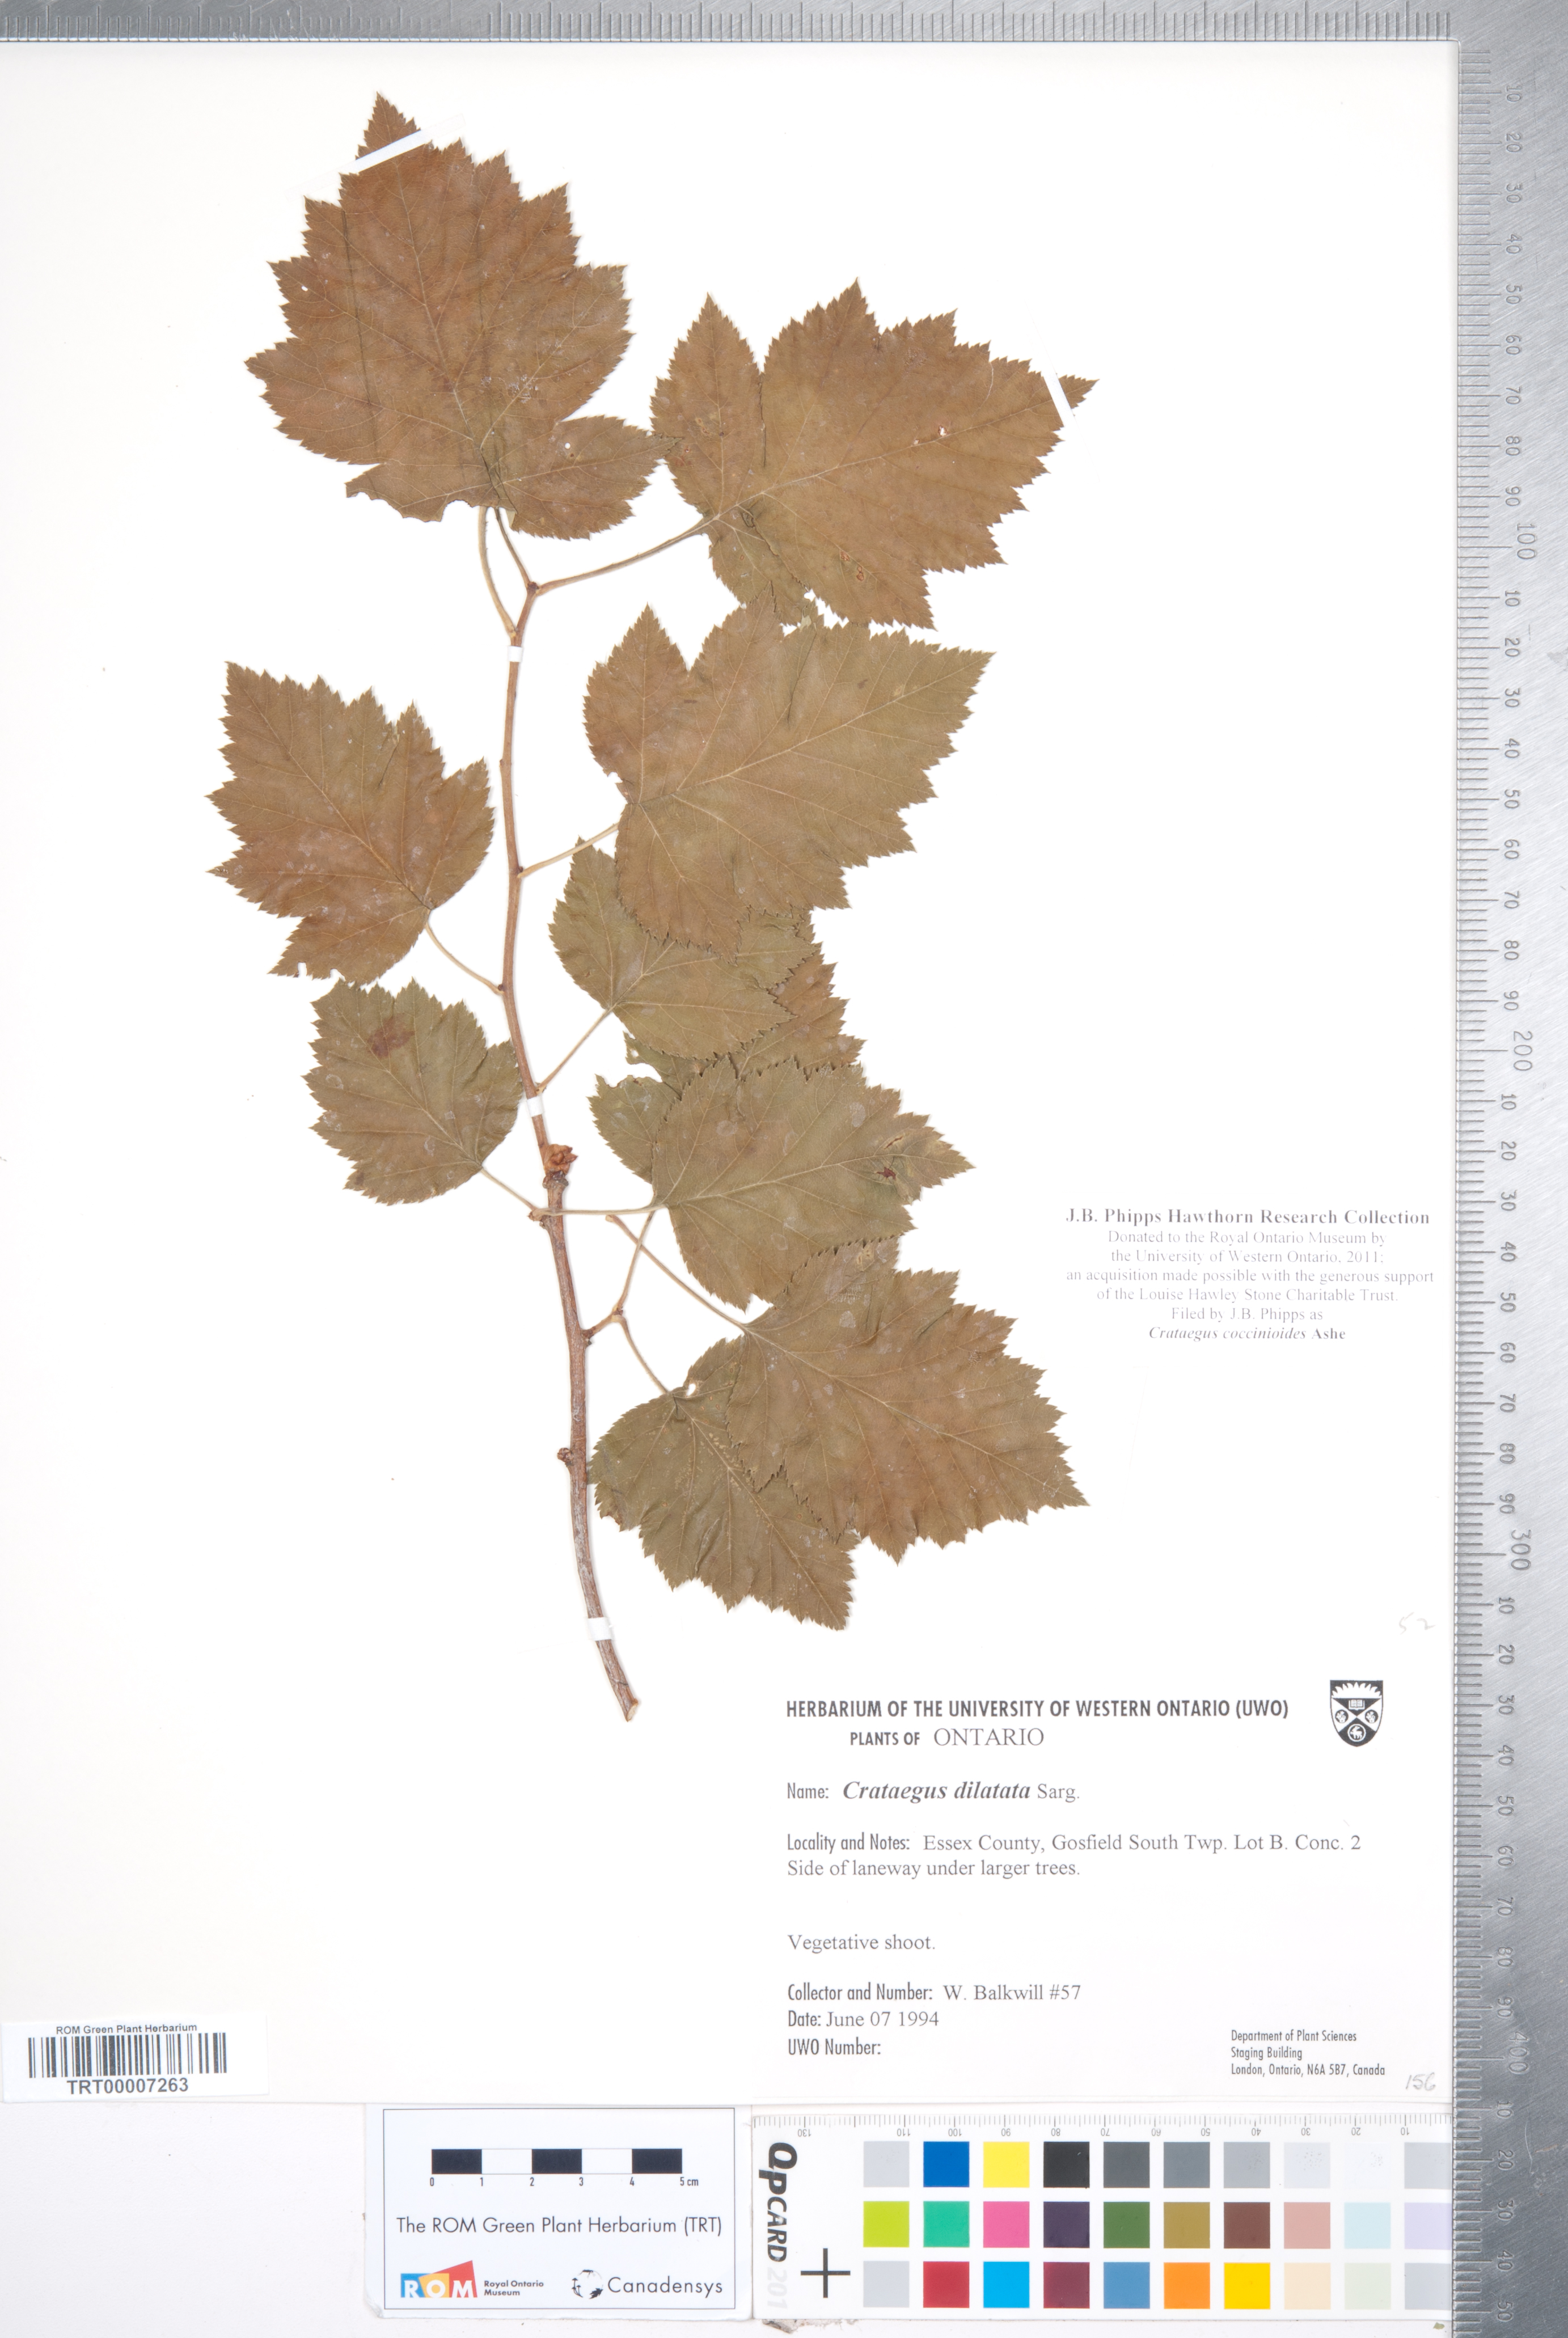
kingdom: Plantae
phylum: Tracheophyta
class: Magnoliopsida
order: Rosales
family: Rosaceae
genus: Crataegus
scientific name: Crataegus coccinioides
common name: Large-flowered cockspurthorn
